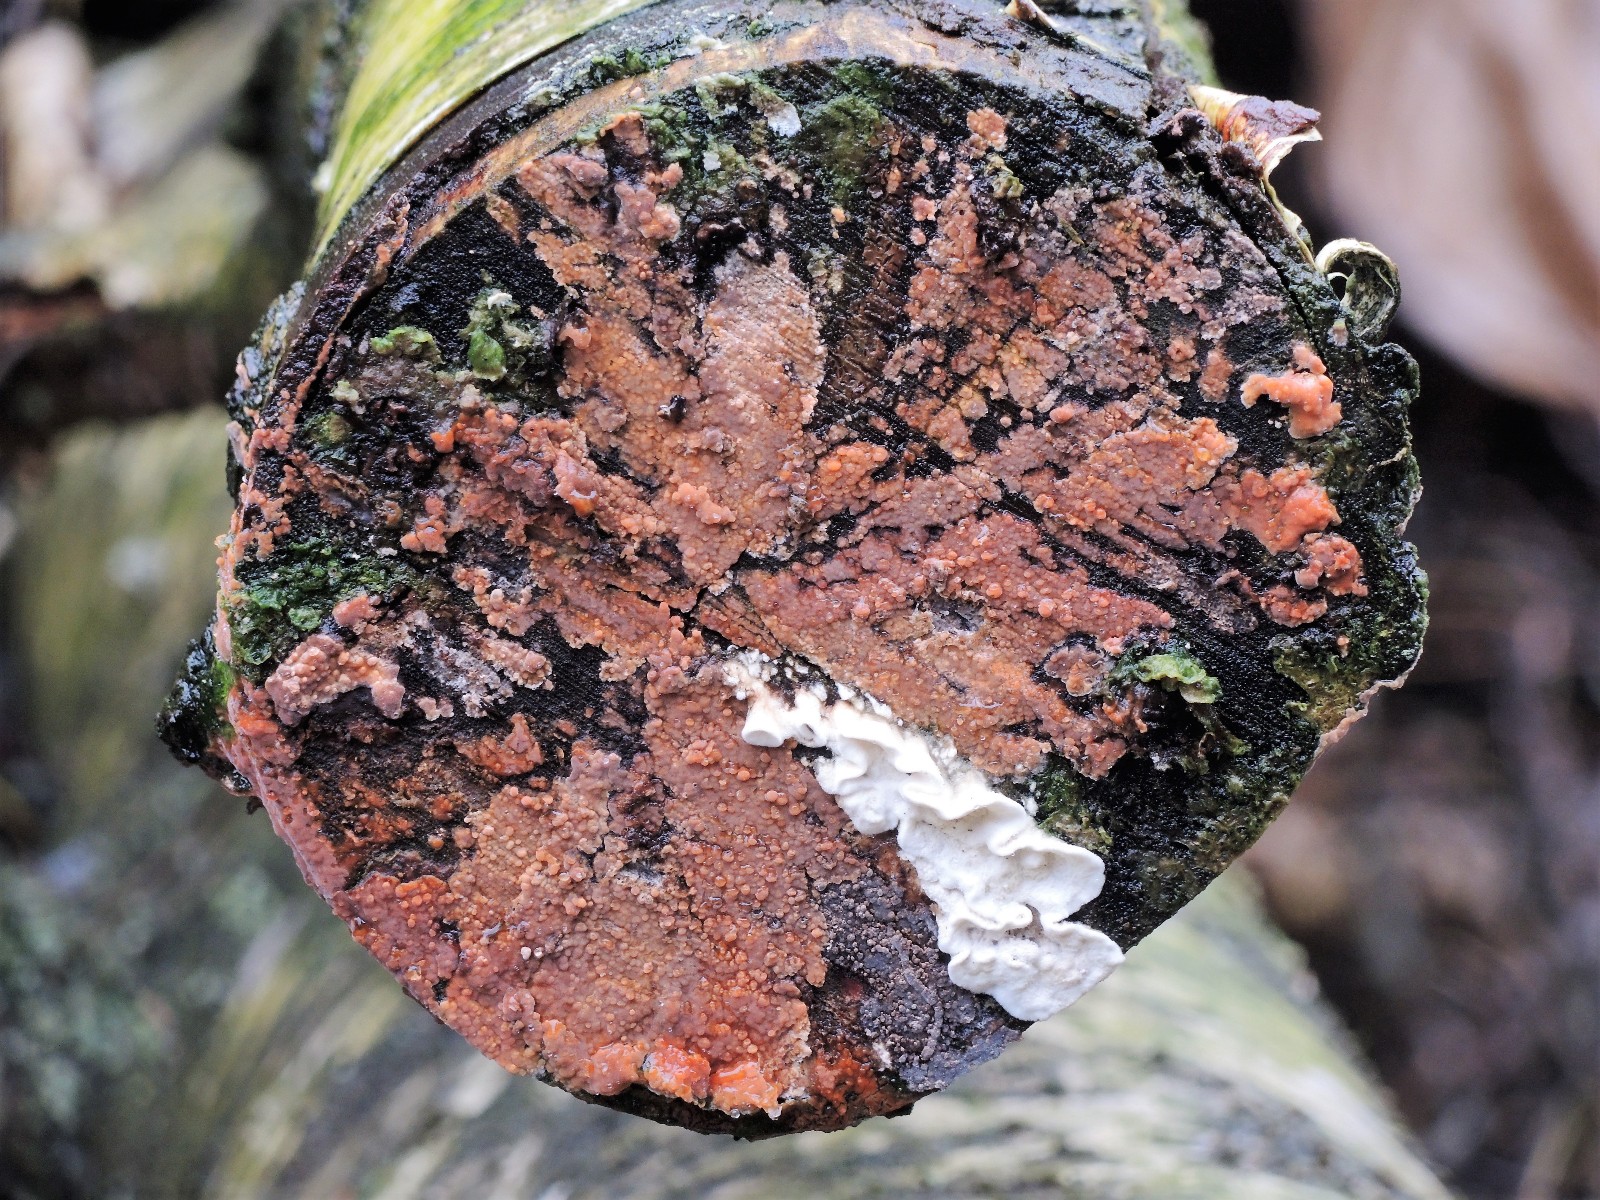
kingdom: Fungi
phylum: Basidiomycota
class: Agaricomycetes
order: Russulales
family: Peniophoraceae
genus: Peniophora
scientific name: Peniophora incarnata
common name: laksefarvet voksskind
